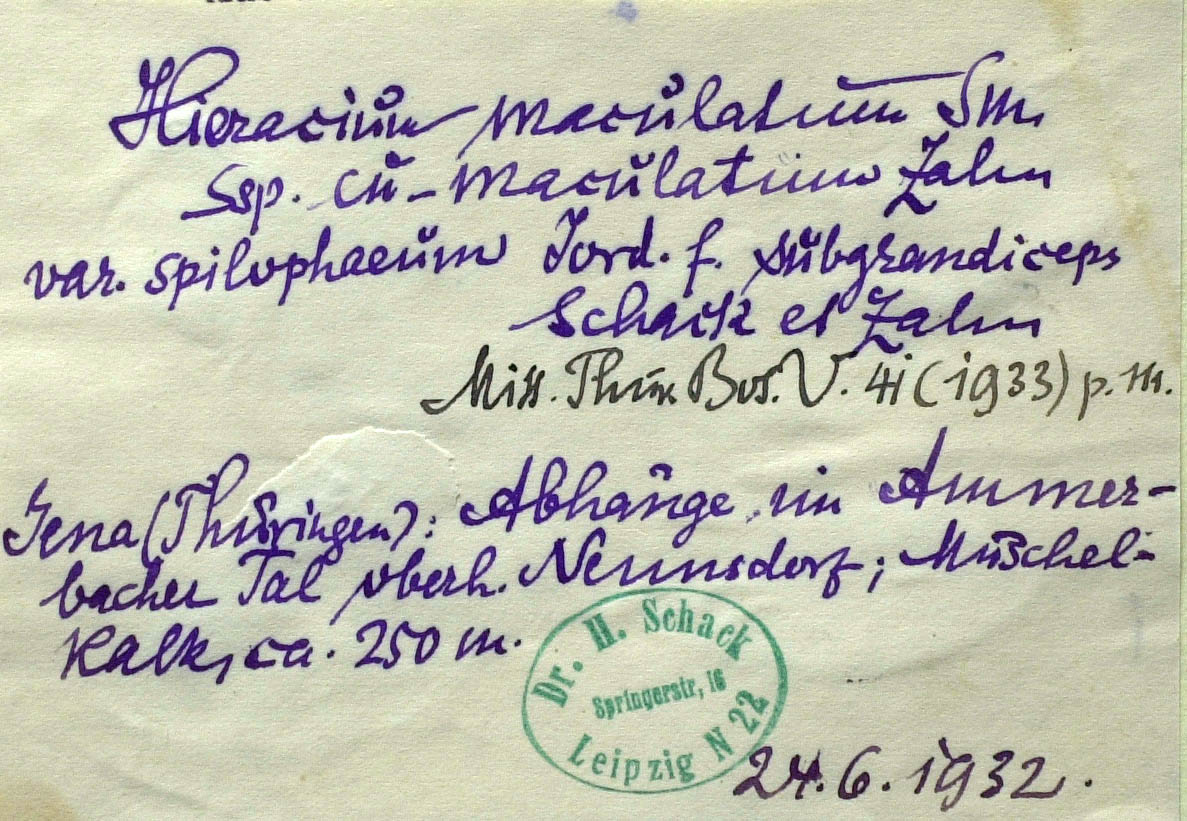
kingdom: Plantae
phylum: Tracheophyta
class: Magnoliopsida
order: Asterales
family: Asteraceae
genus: Hieracium
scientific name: Hieracium maculatum
